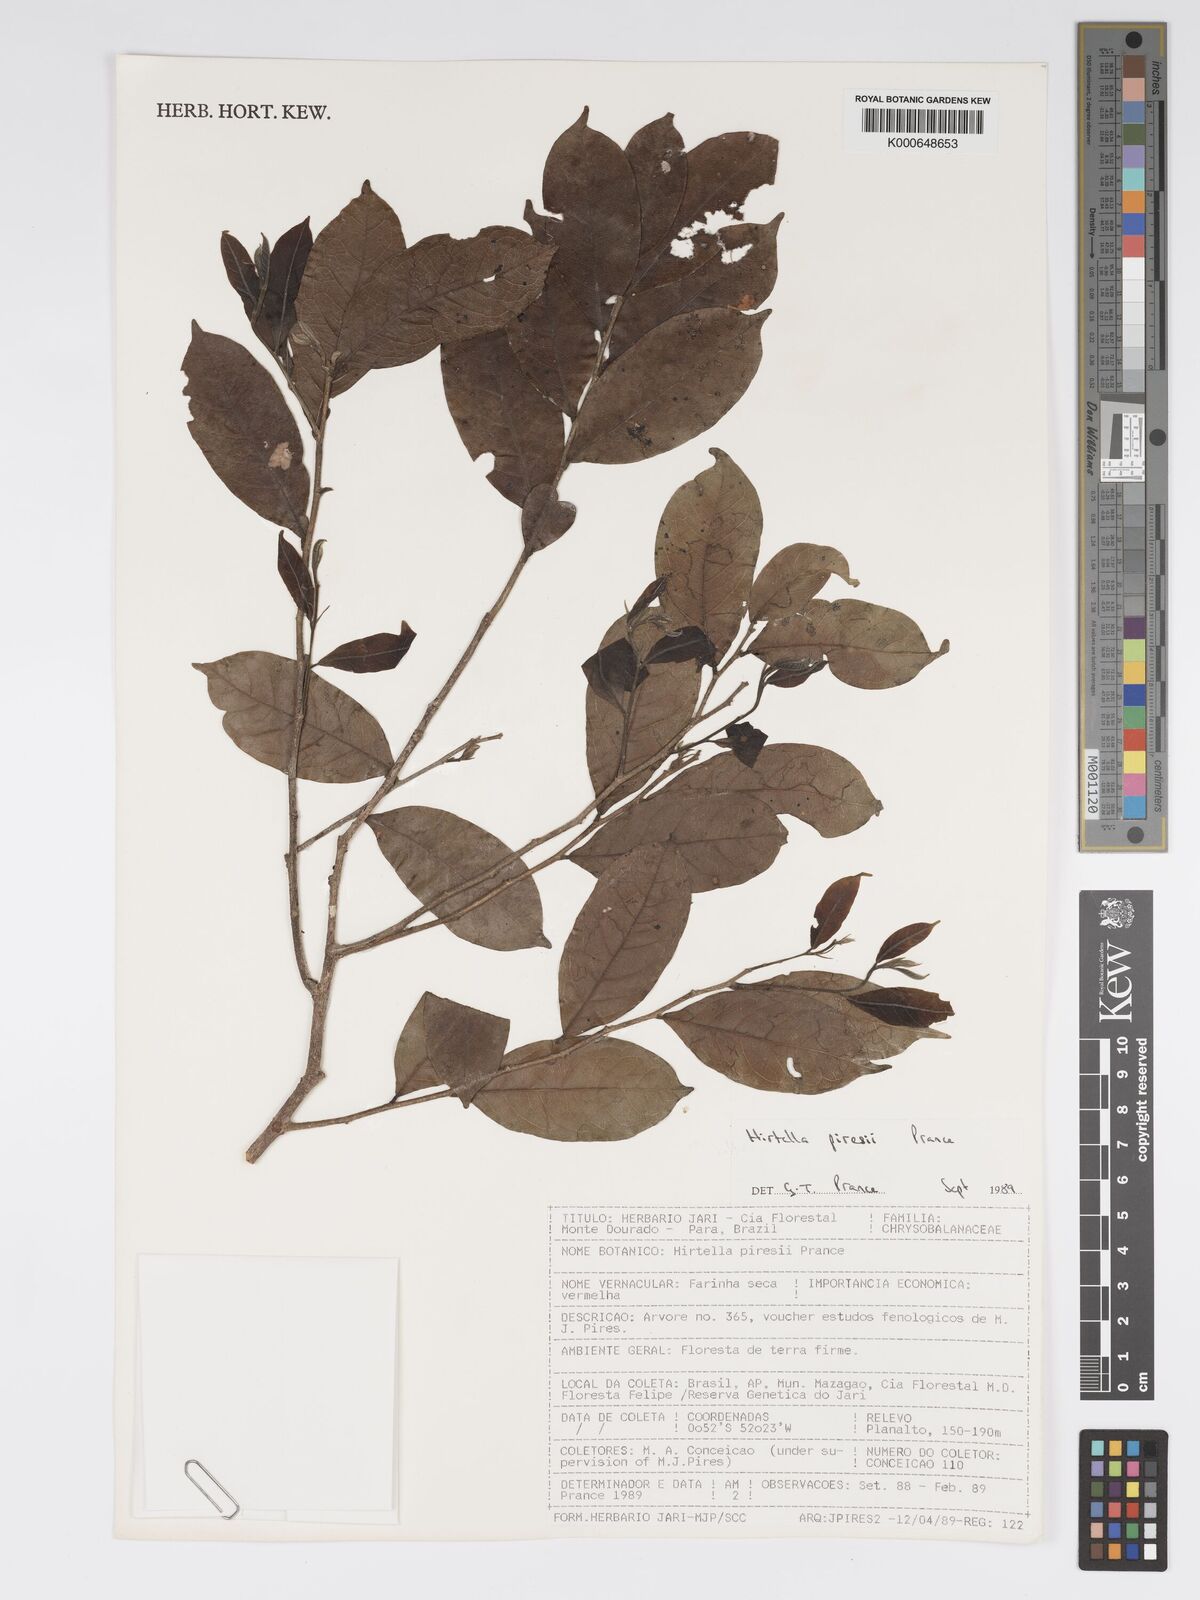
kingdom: Plantae
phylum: Tracheophyta
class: Magnoliopsida
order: Malpighiales
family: Chrysobalanaceae
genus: Hirtella
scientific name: Hirtella piresii
